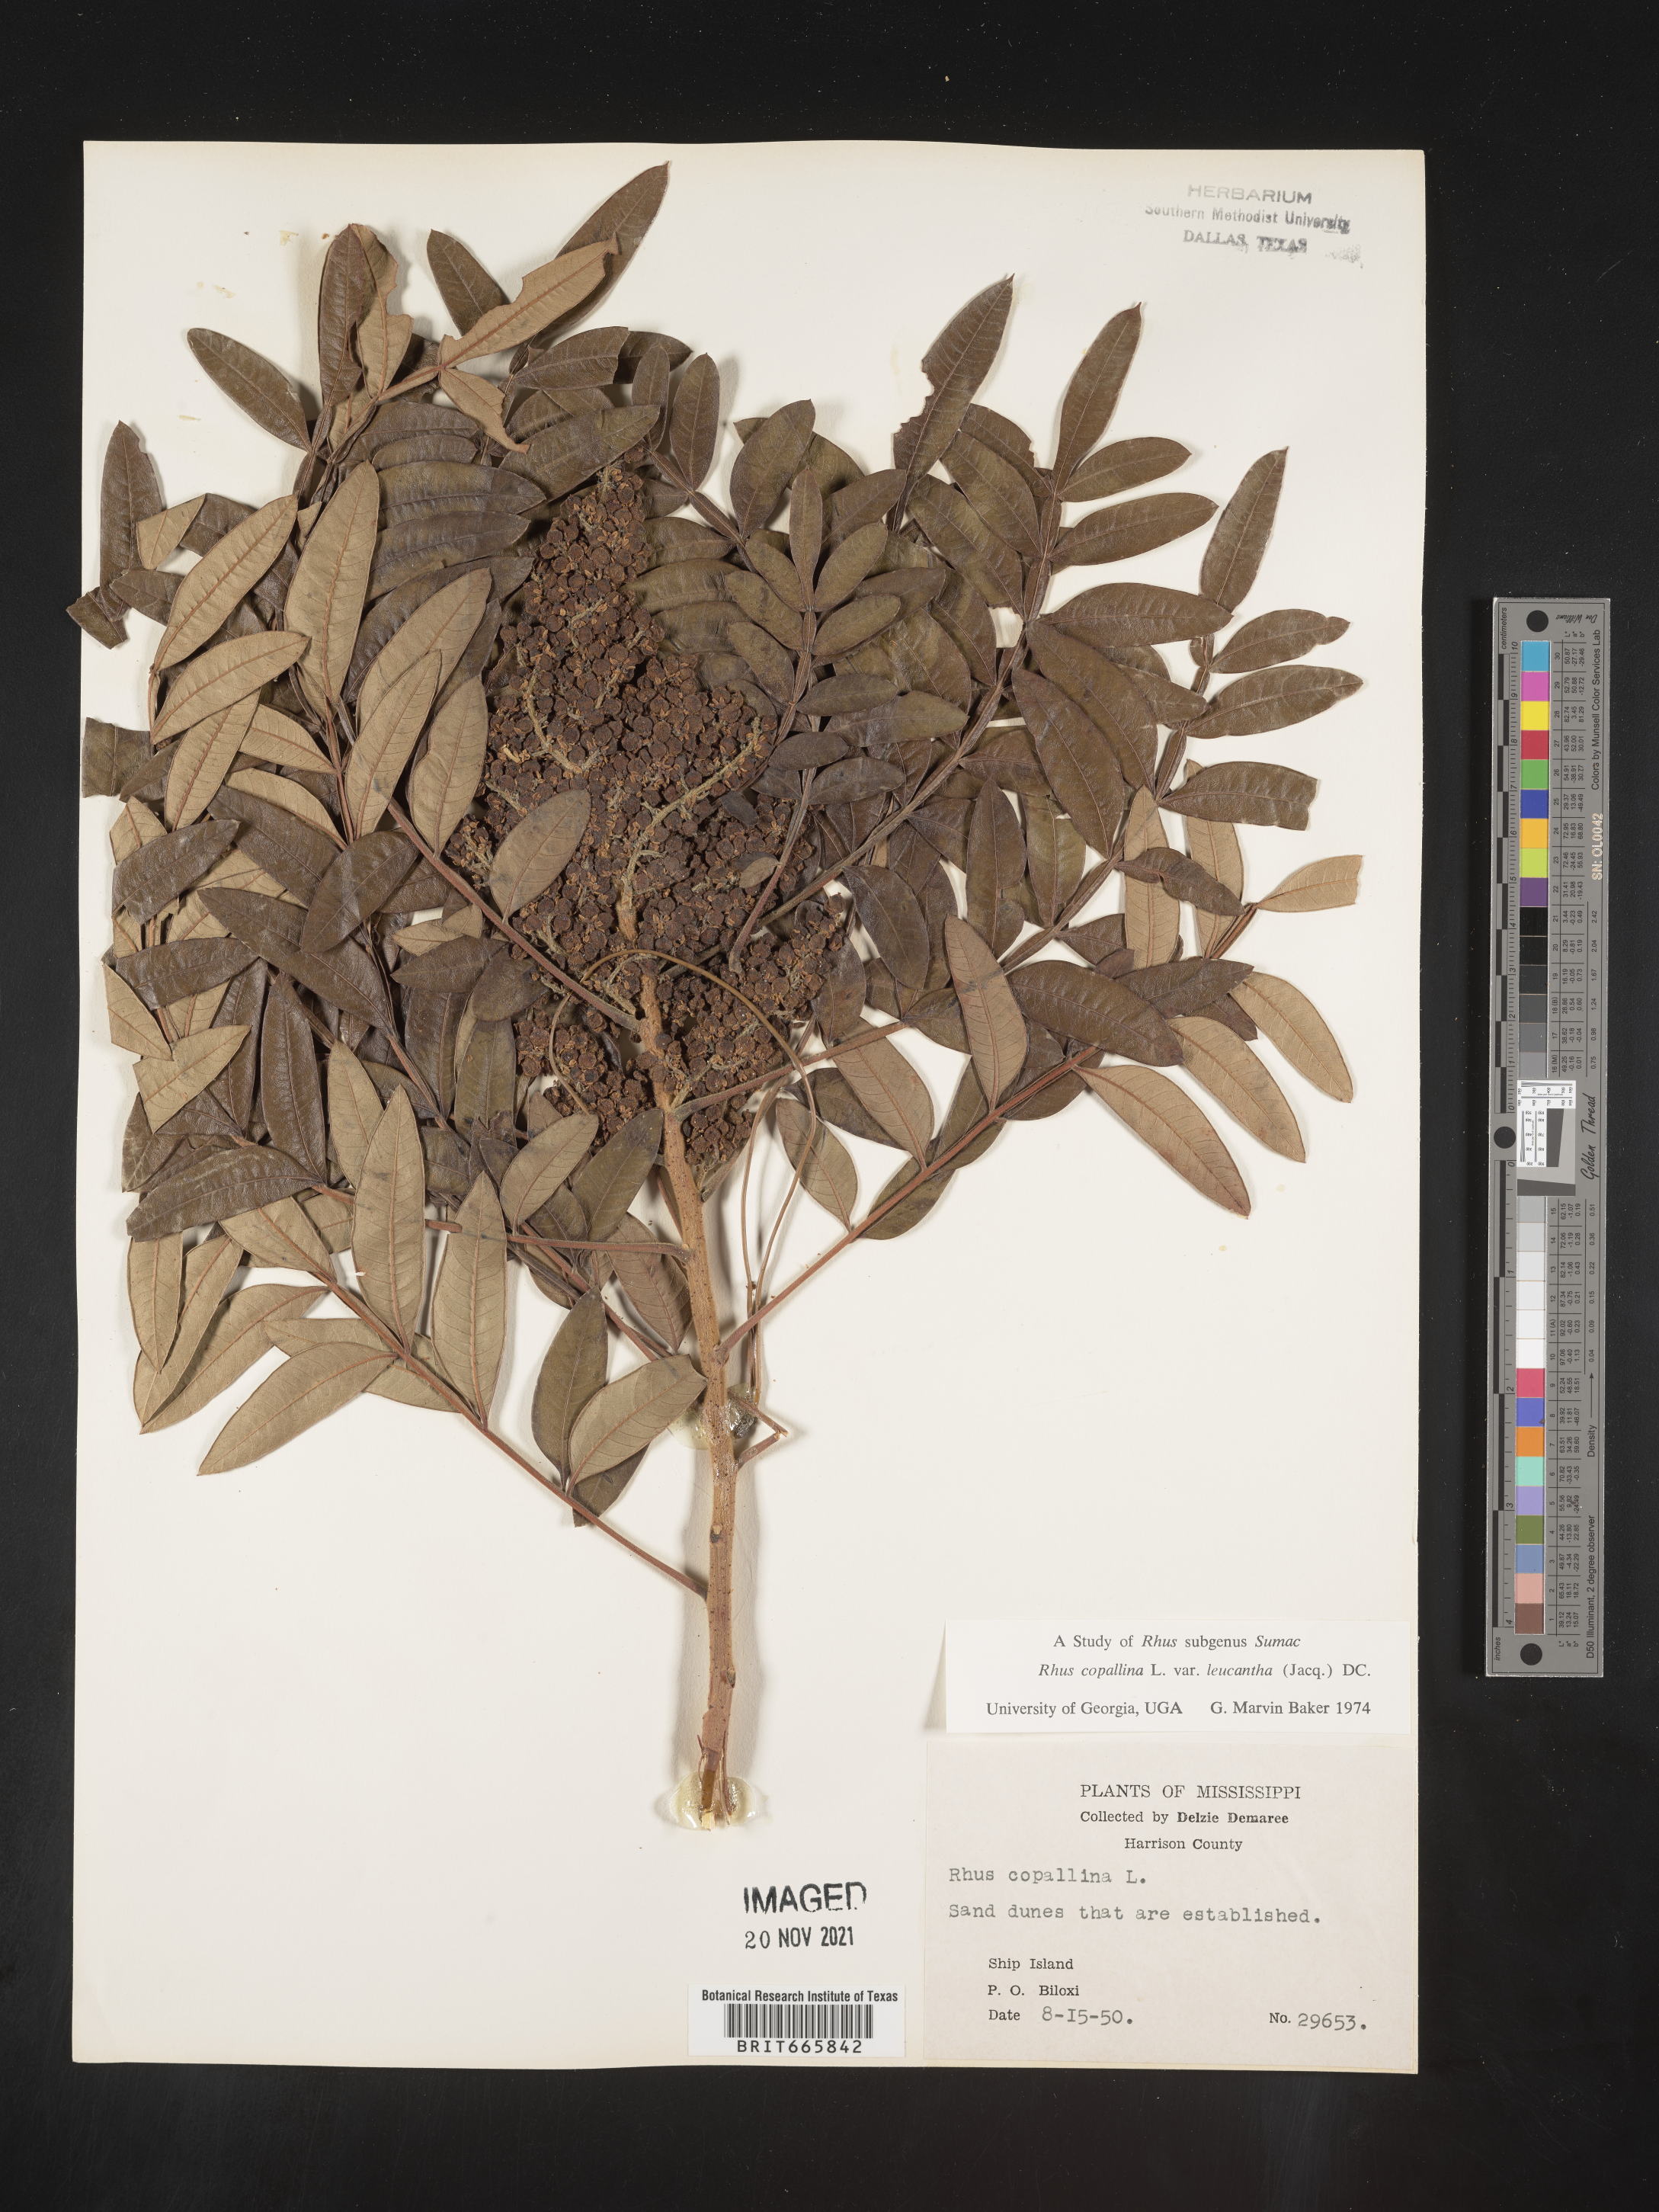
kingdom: Plantae
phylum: Tracheophyta
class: Magnoliopsida
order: Sapindales
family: Anacardiaceae
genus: Rhus
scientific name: Rhus copallina
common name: Shining sumac
